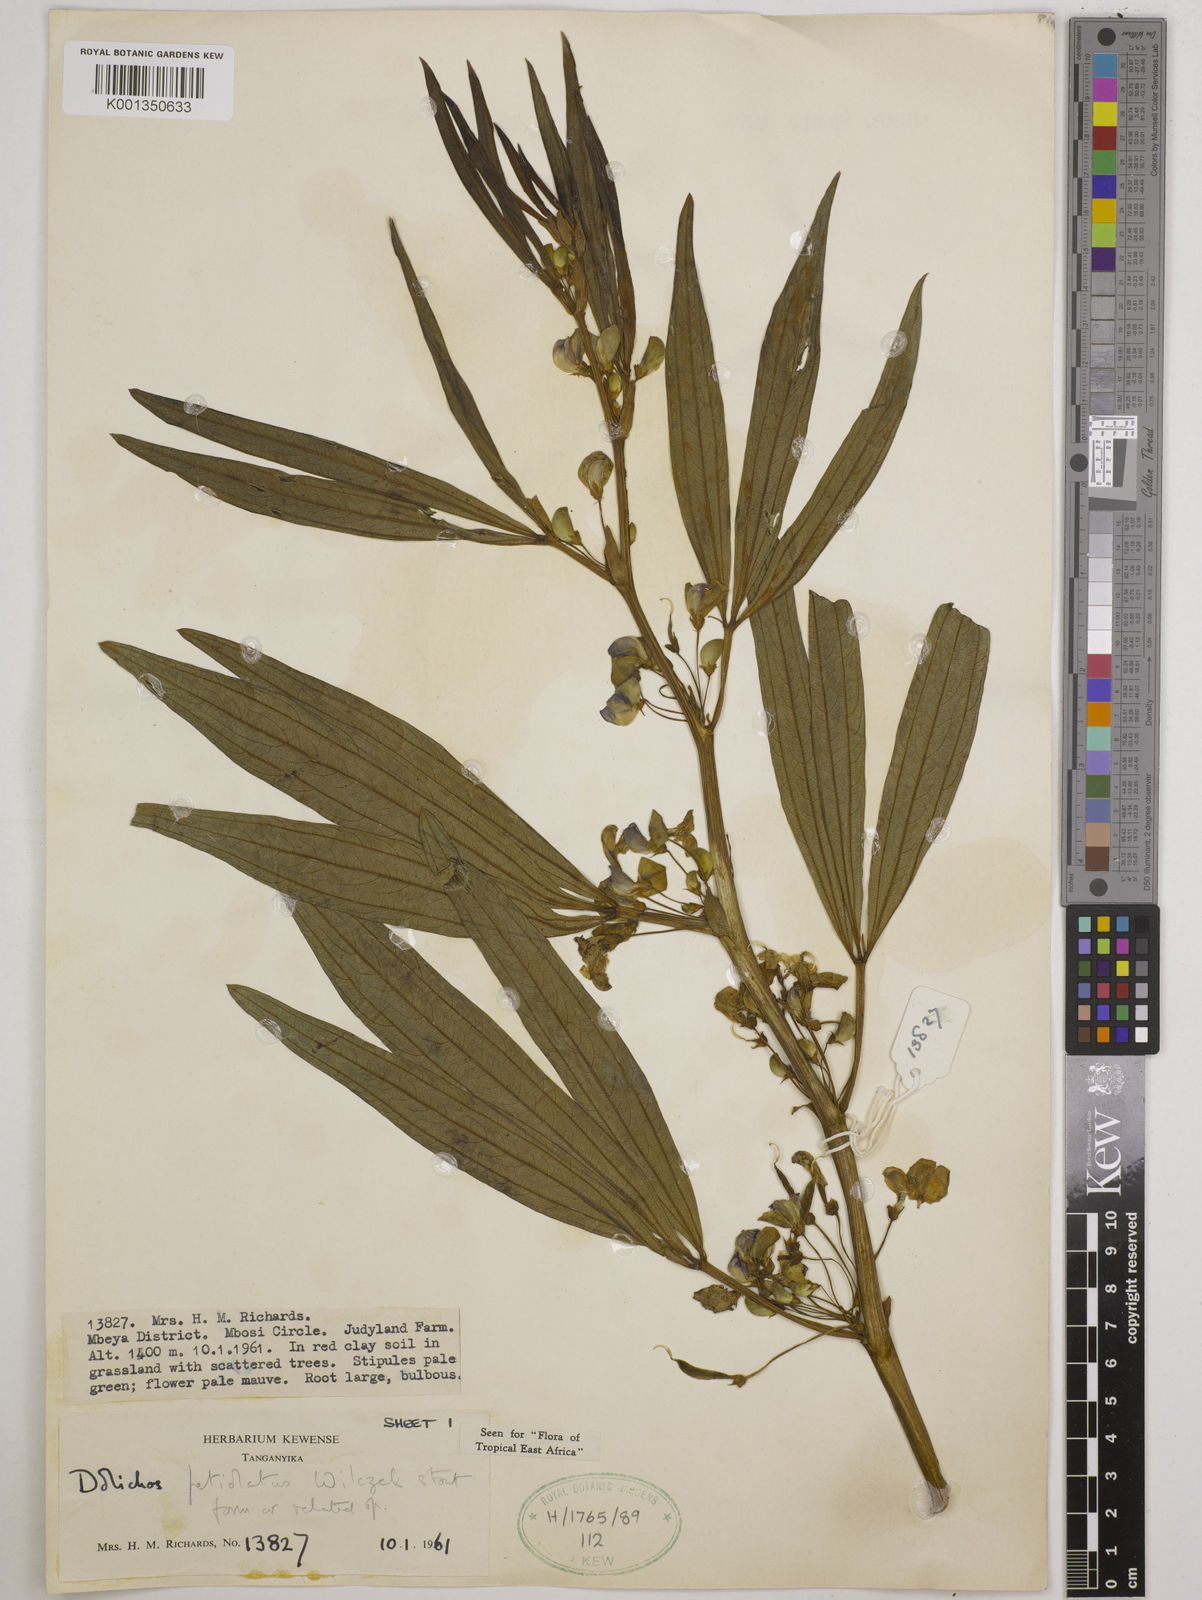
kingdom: Plantae
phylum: Tracheophyta
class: Magnoliopsida
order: Fabales
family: Fabaceae
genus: Dolichos
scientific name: Dolichos petiolatus
